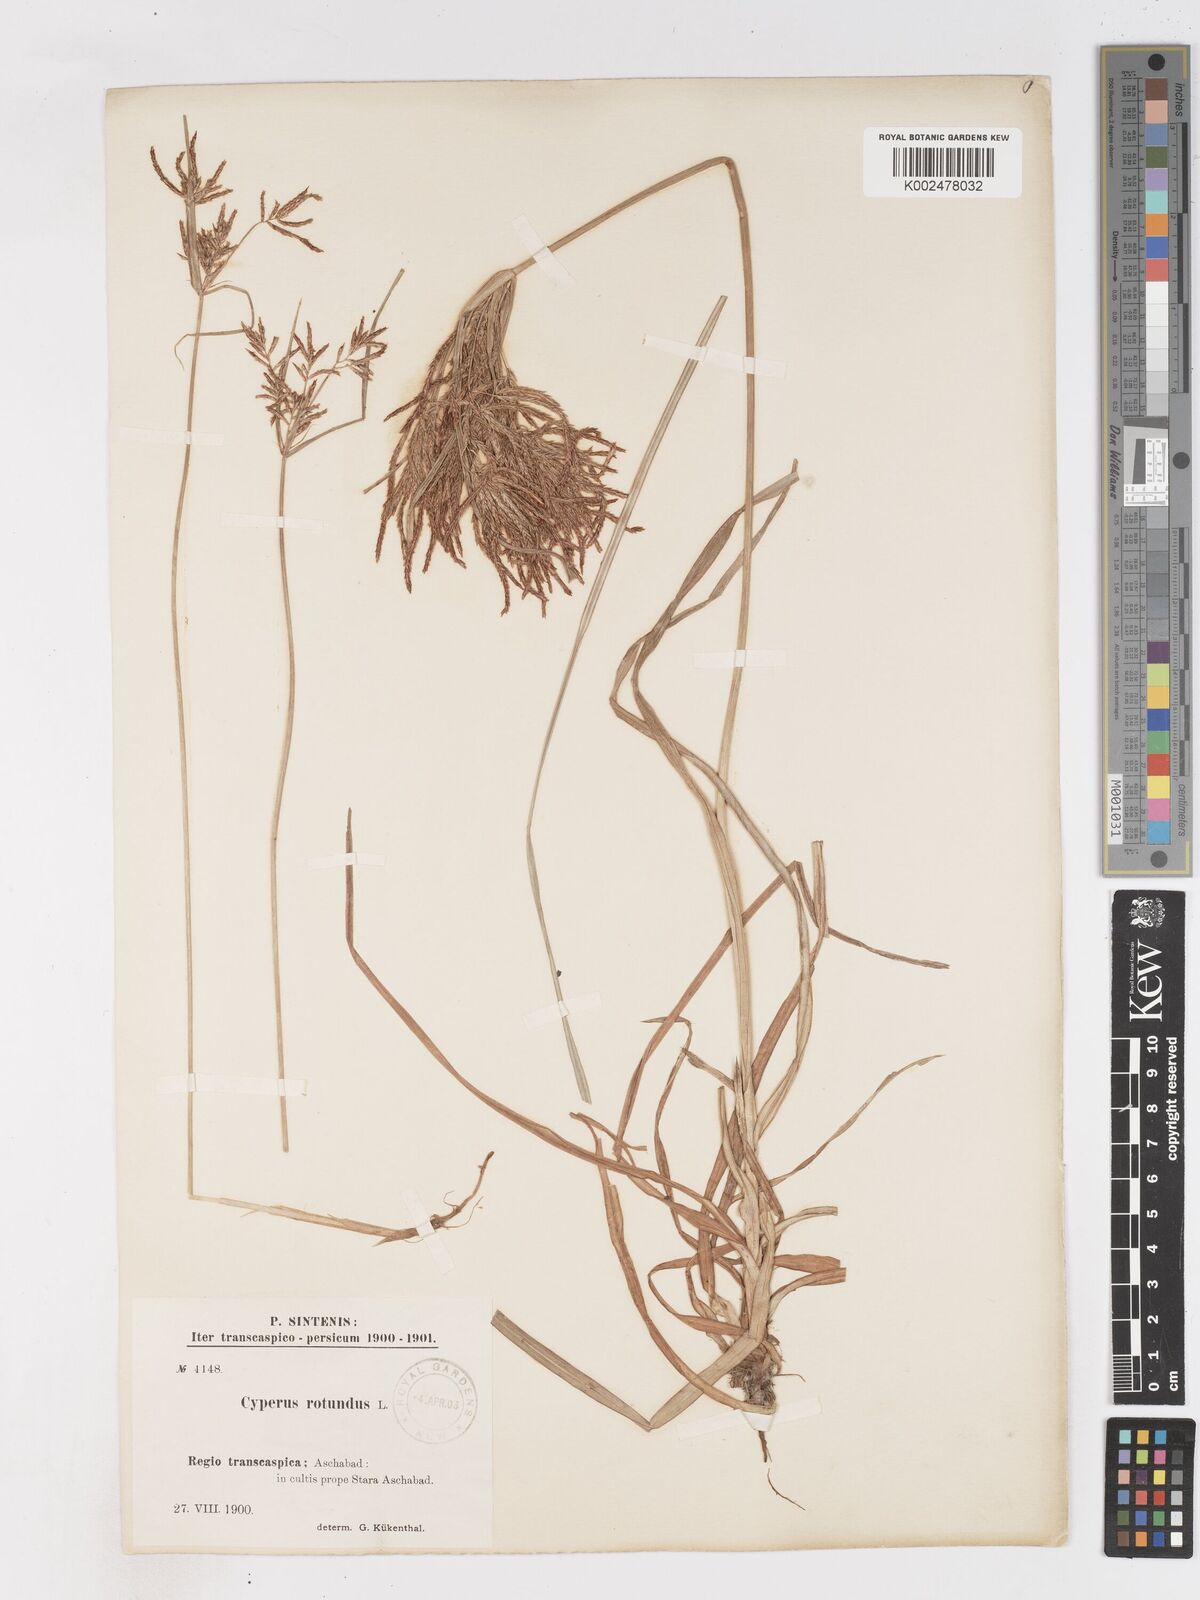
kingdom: Plantae
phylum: Tracheophyta
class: Liliopsida
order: Poales
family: Cyperaceae
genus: Cyperus
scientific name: Cyperus rotundus
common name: Nutgrass
